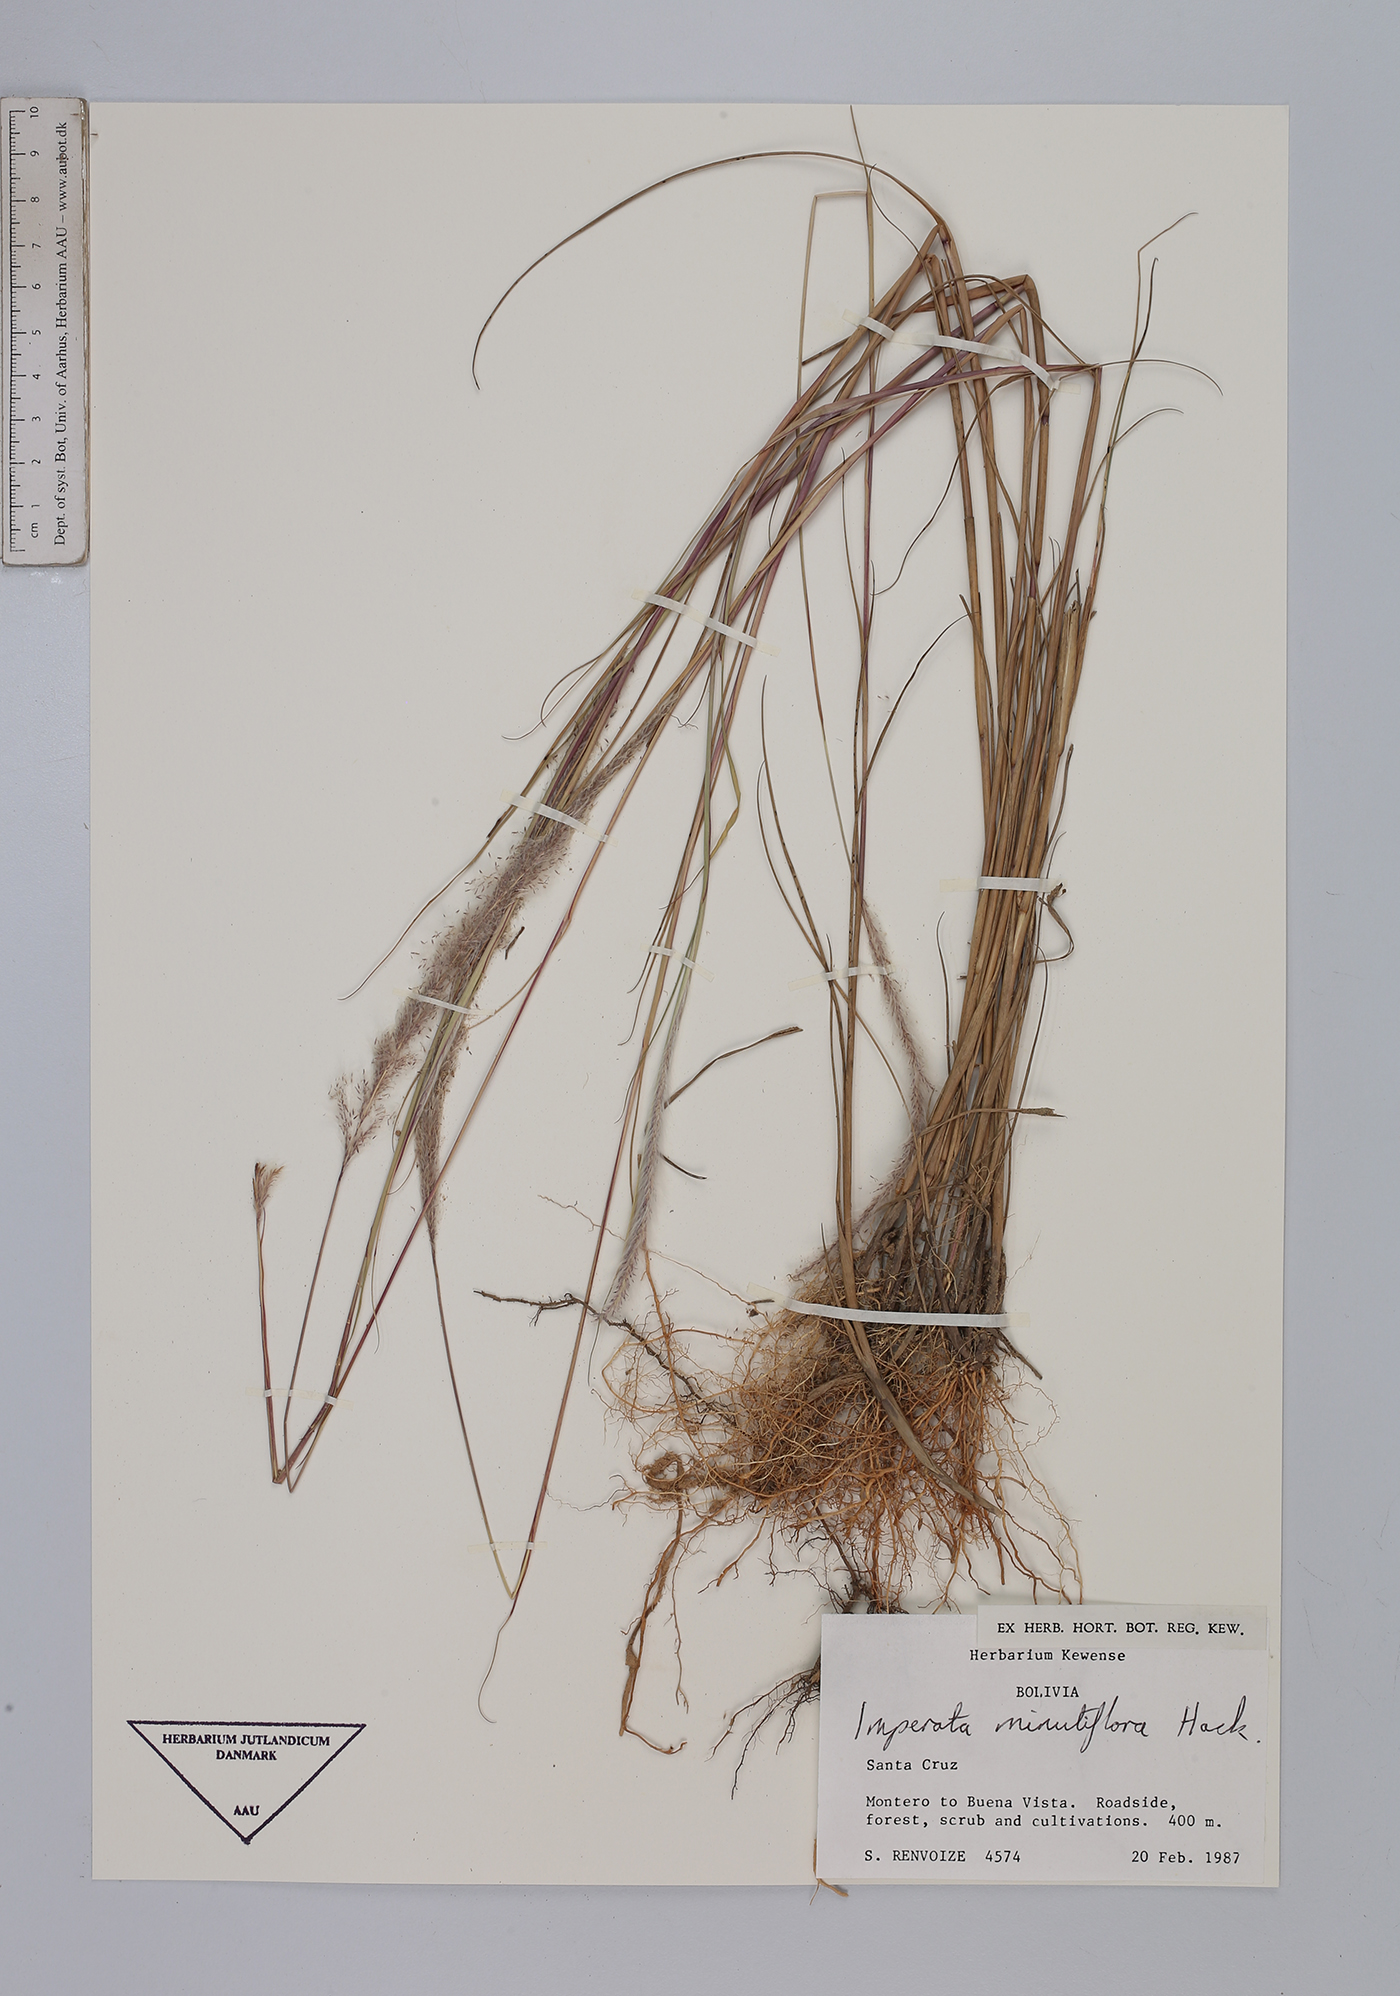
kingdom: Plantae
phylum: Tracheophyta
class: Liliopsida
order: Poales
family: Poaceae
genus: Imperata
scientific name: Imperata minutiflora
